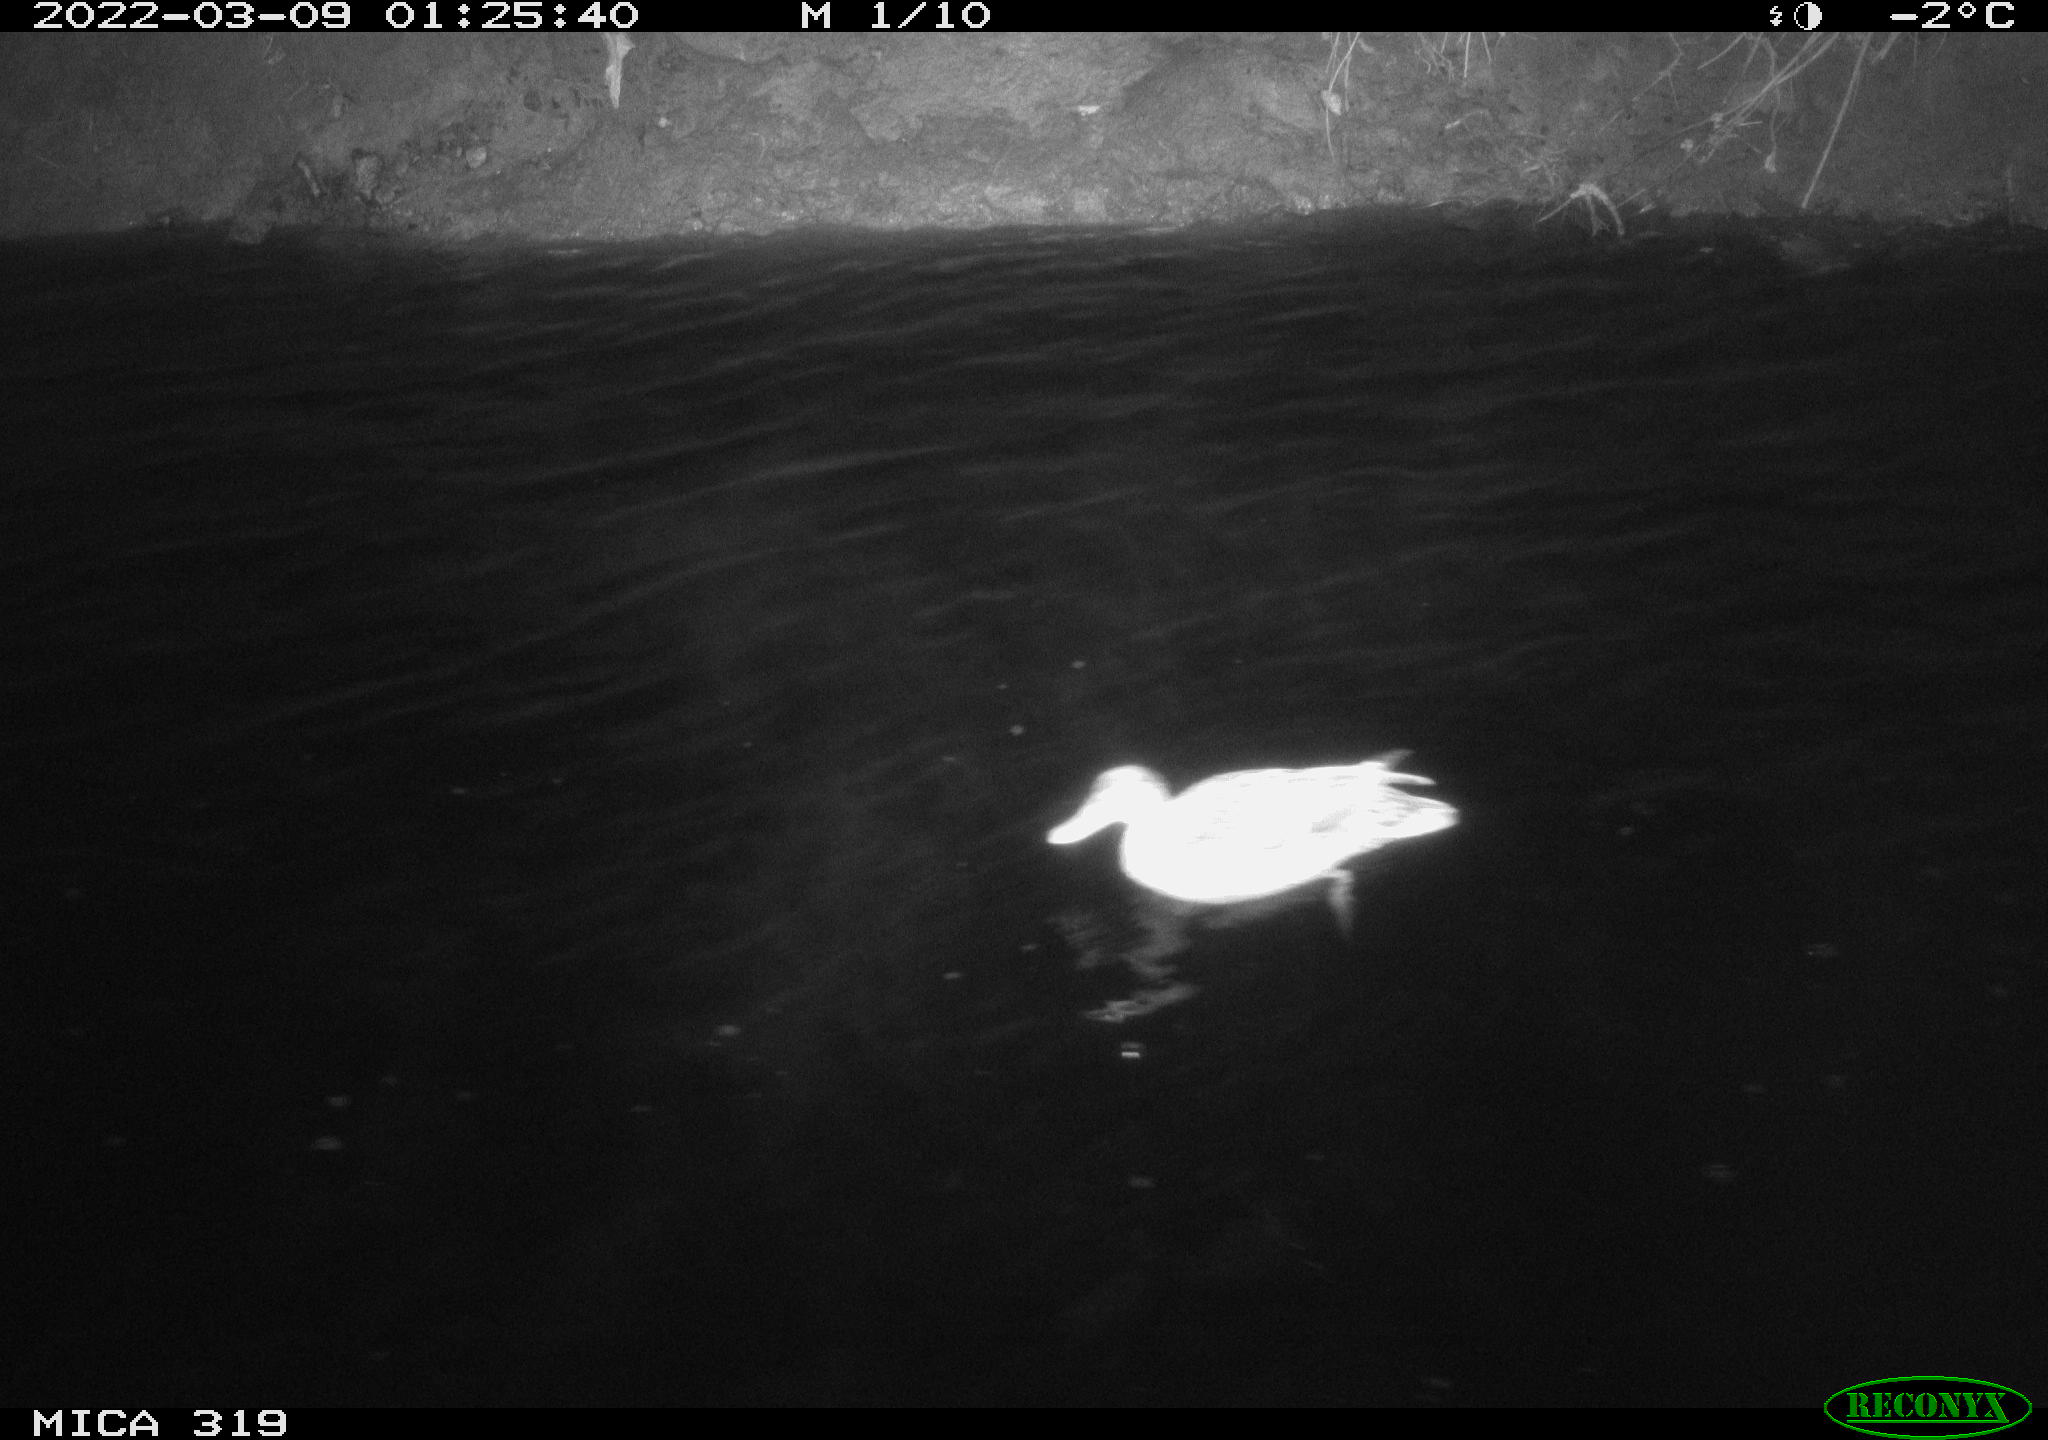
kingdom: Animalia
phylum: Chordata
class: Aves
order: Anseriformes
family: Anatidae
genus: Anas
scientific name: Anas platyrhynchos
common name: Mallard
